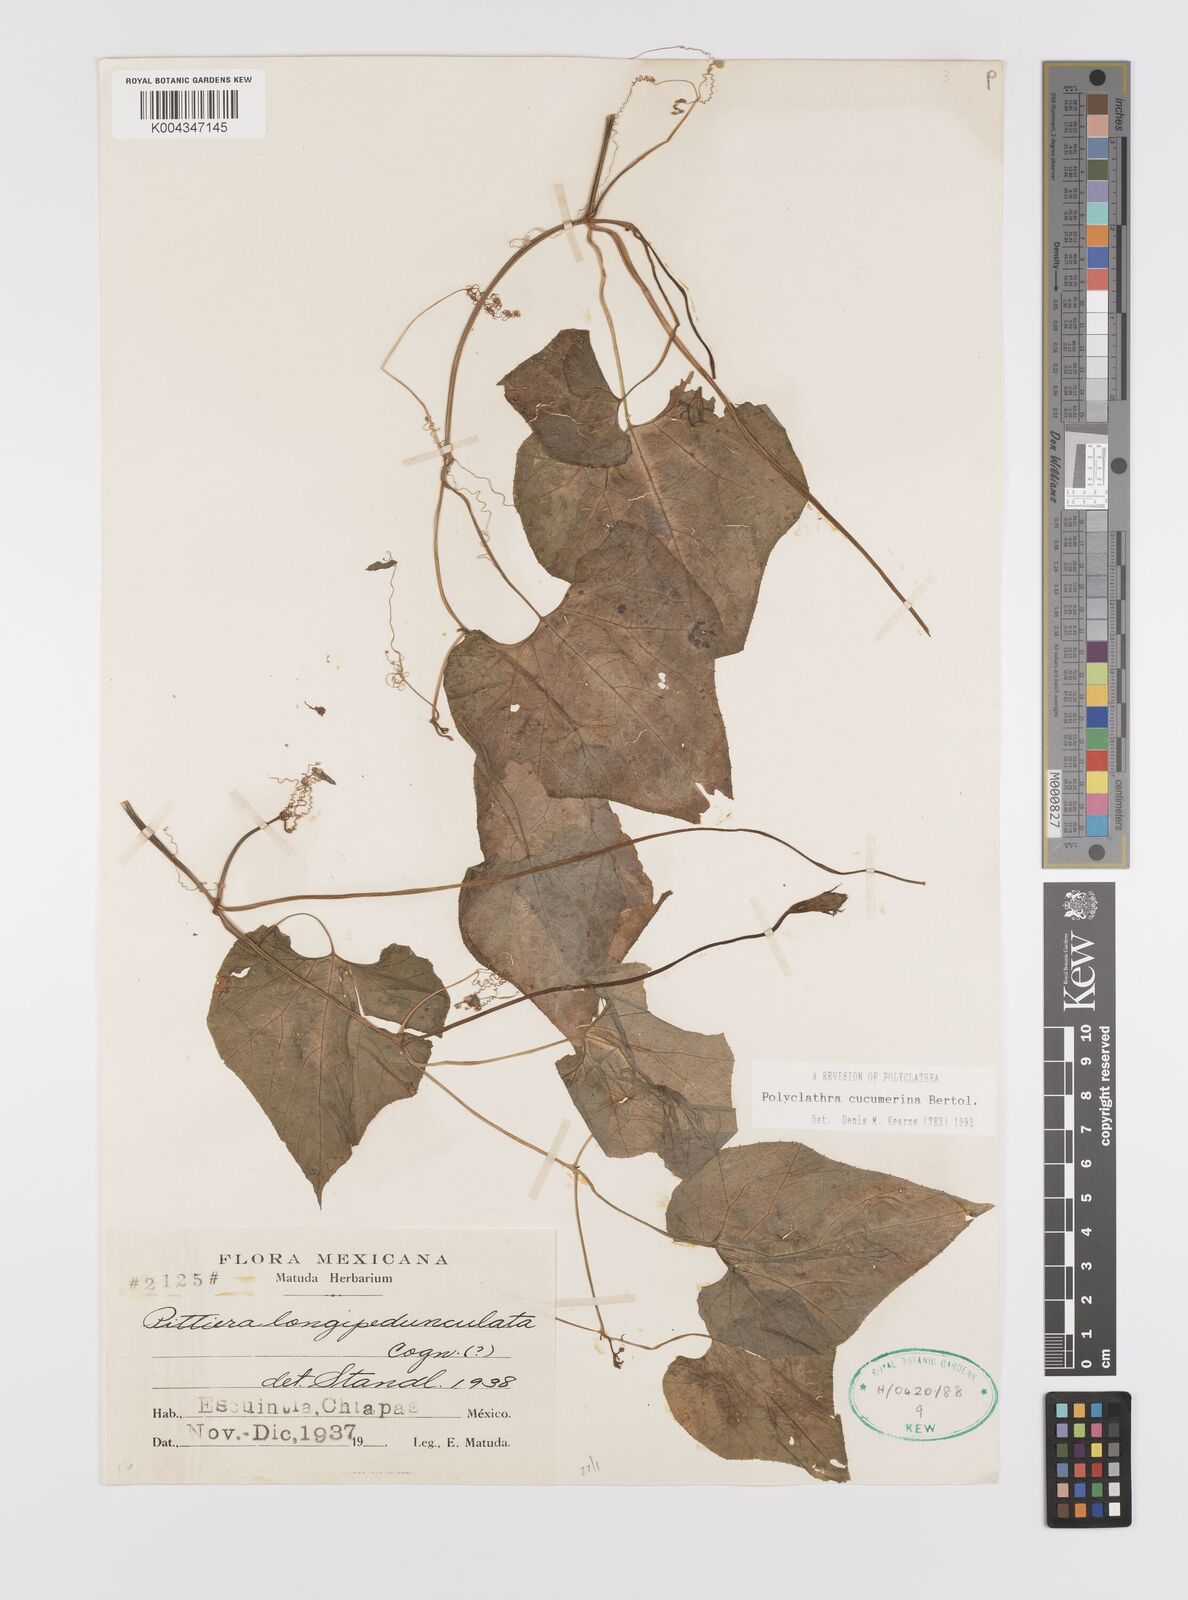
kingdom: Plantae
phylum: Tracheophyta
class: Magnoliopsida
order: Cucurbitales
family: Cucurbitaceae
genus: Polyclathra
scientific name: Polyclathra cucumerina
